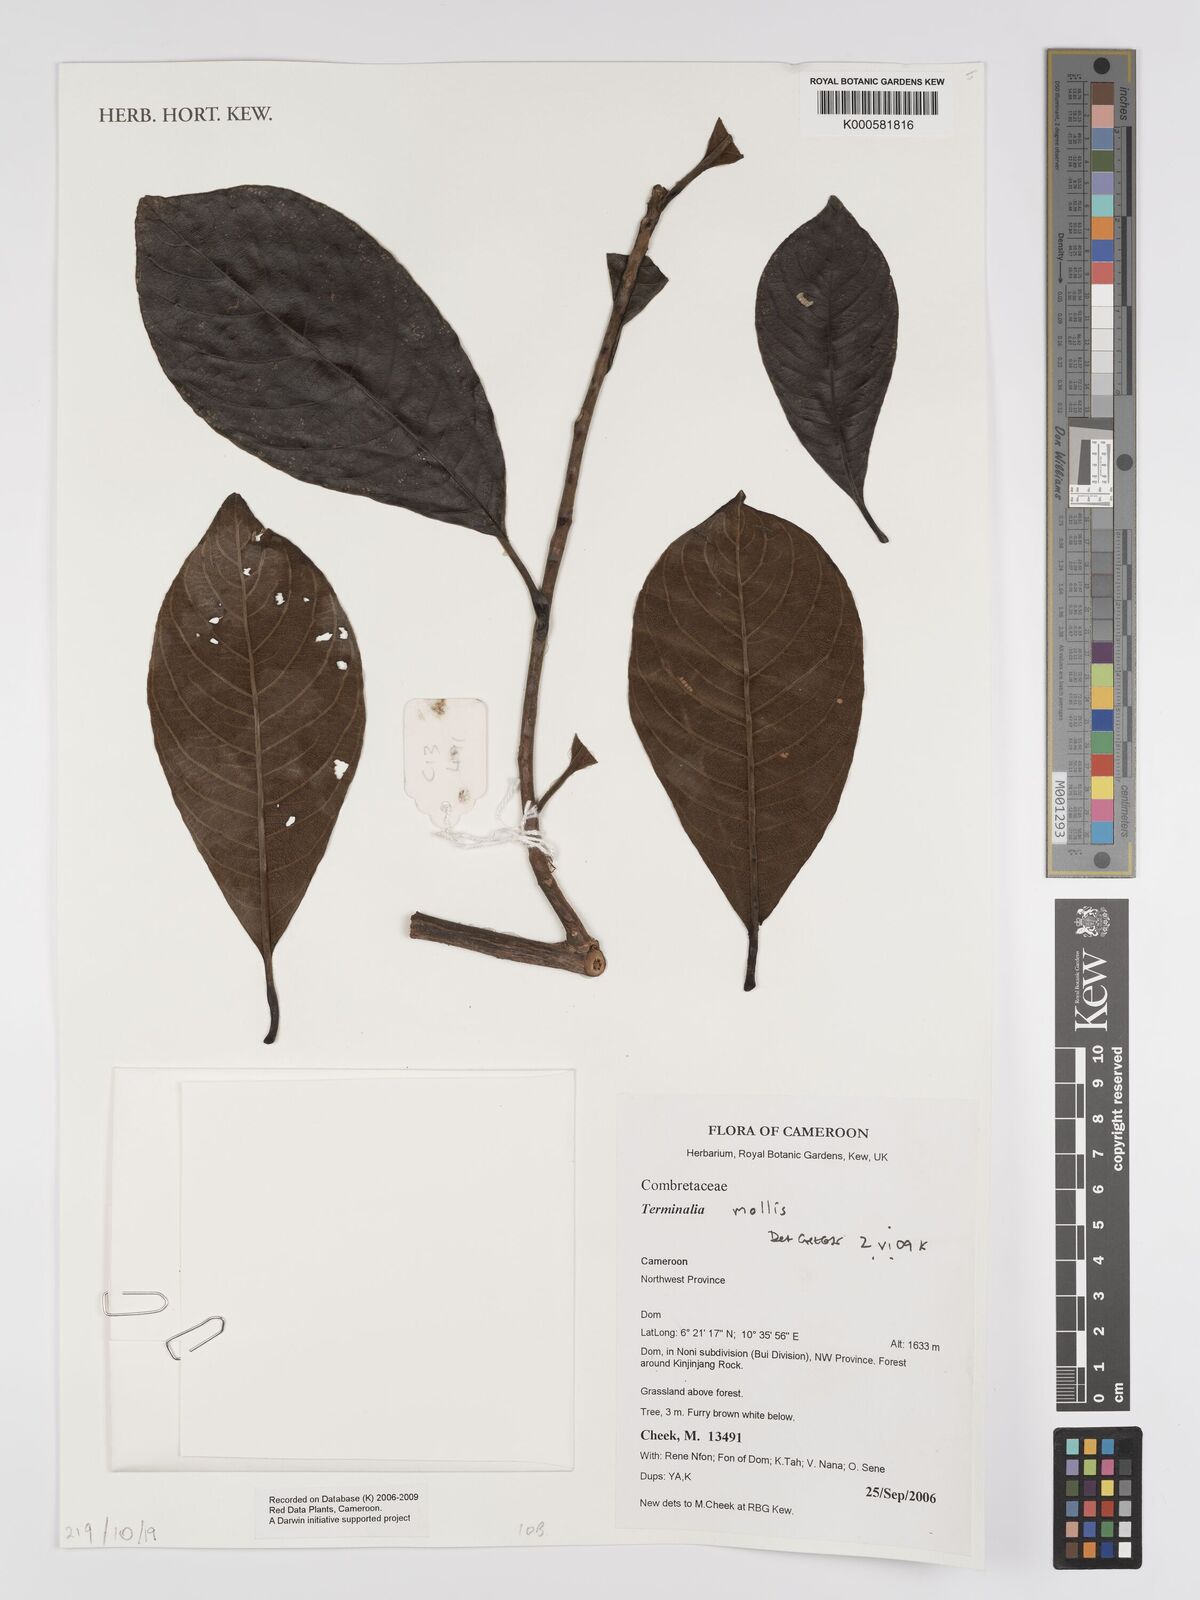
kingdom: Plantae
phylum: Tracheophyta
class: Magnoliopsida
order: Myrtales
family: Combretaceae
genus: Terminalia
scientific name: Terminalia mollis
